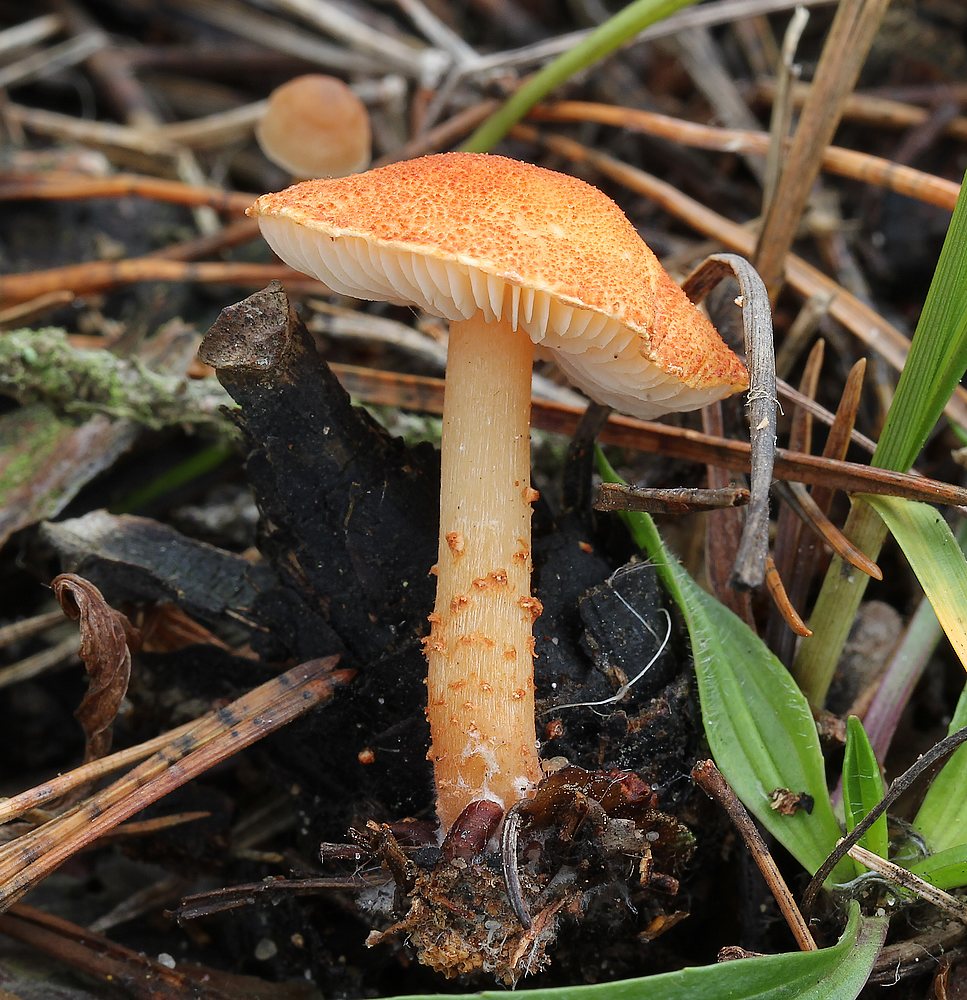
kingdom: Fungi
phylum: Basidiomycota
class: Agaricomycetes
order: Agaricales
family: Agaricaceae
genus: Cystodermella
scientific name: Cystodermella cinnabarina
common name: cinnober-grynhat
